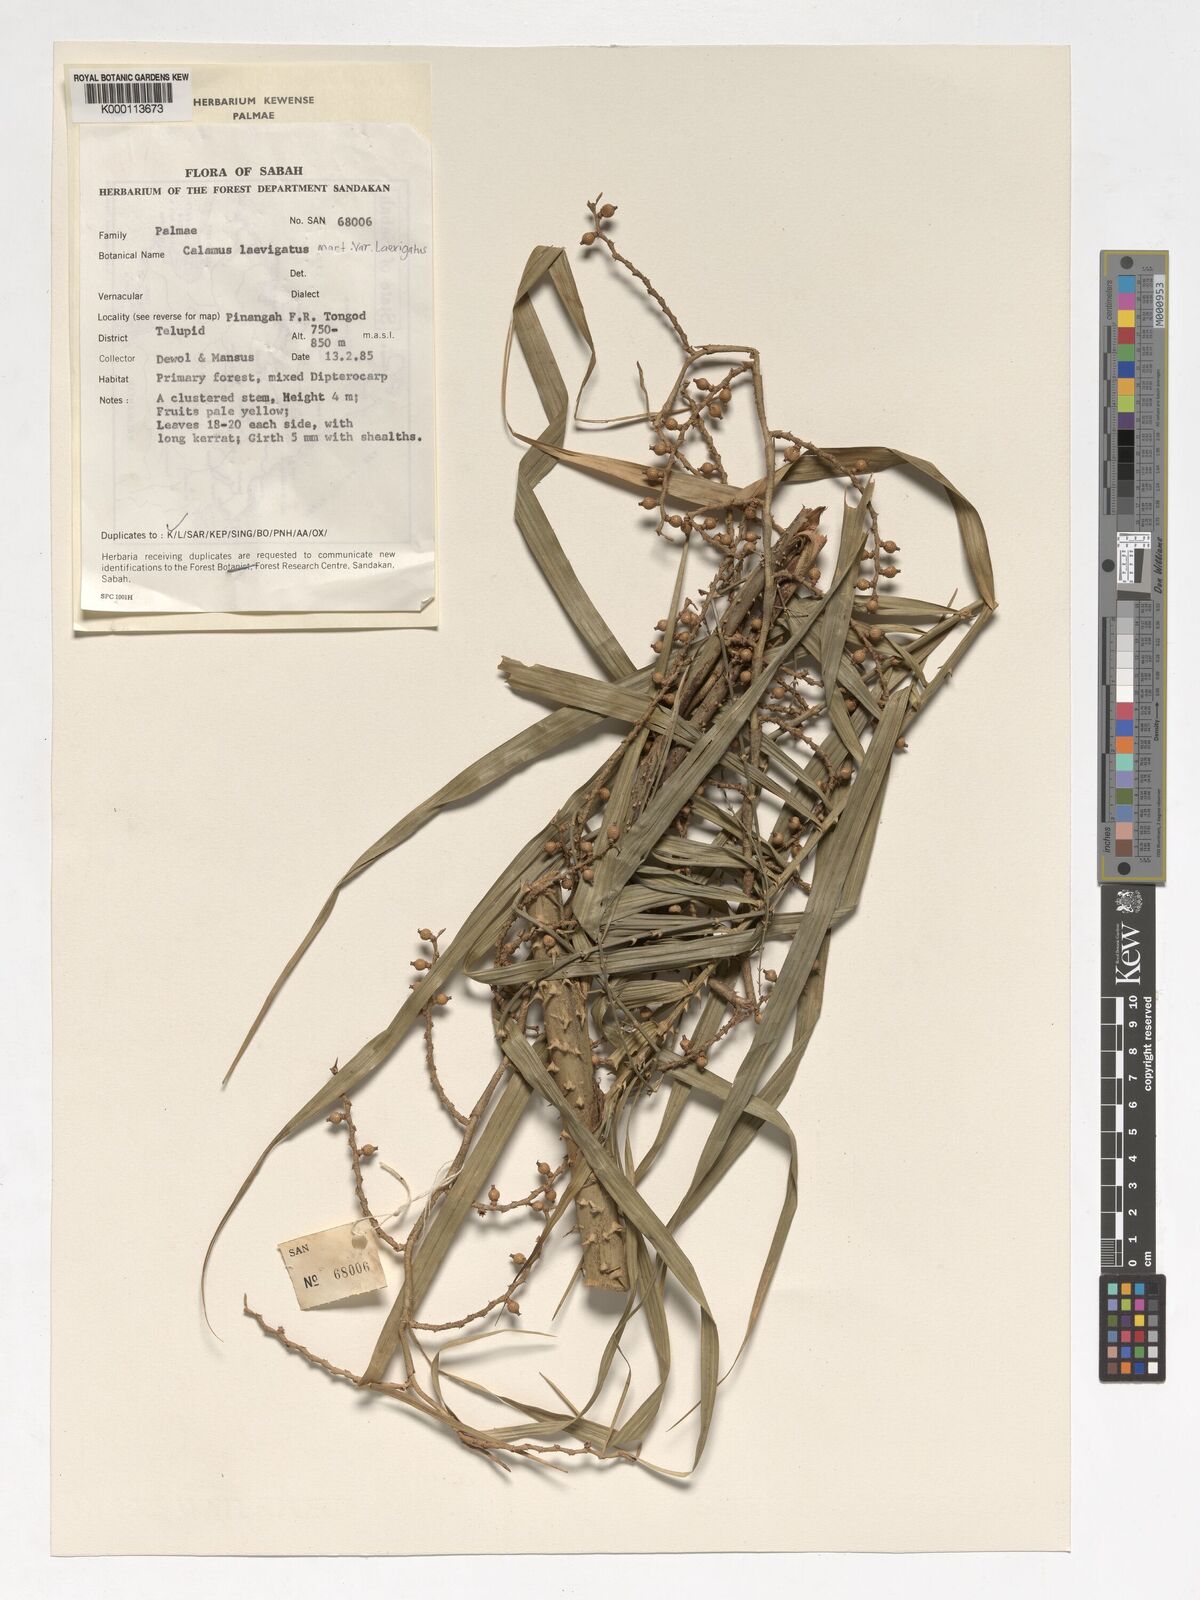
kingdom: Plantae
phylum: Tracheophyta
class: Liliopsida
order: Arecales
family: Arecaceae
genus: Calamus
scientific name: Calamus
